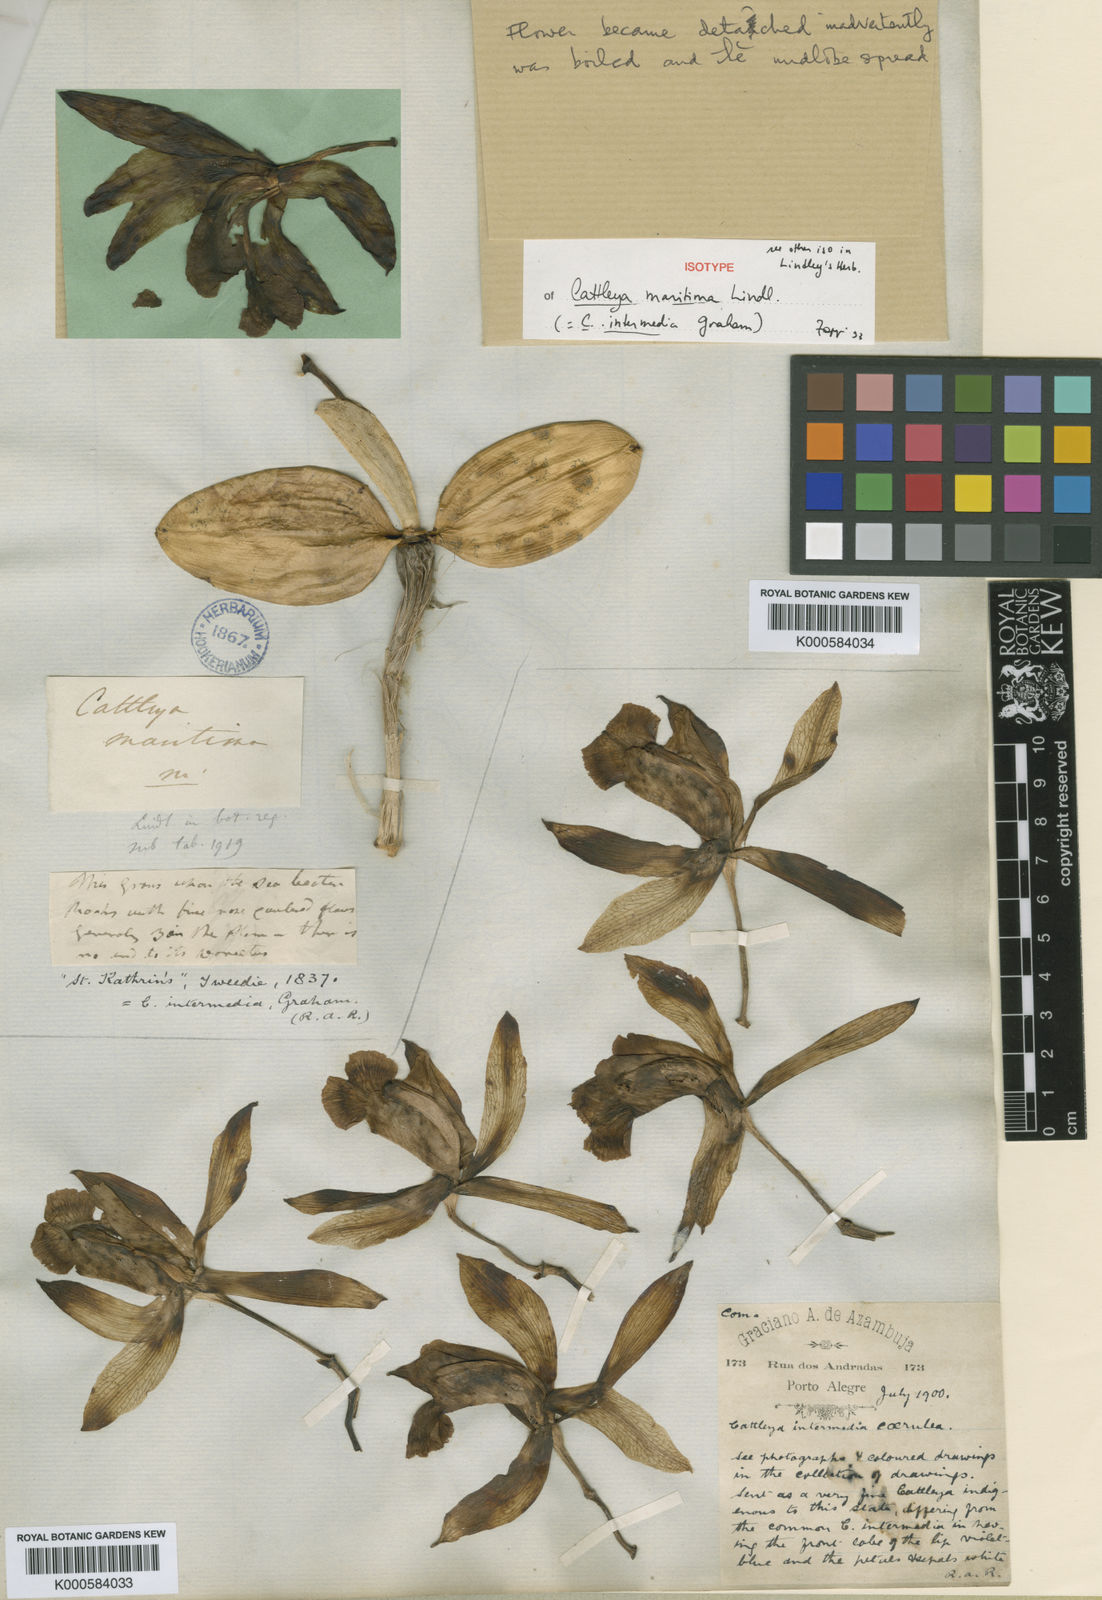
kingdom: Plantae
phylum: Tracheophyta
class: Liliopsida
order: Asparagales
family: Orchidaceae
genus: Cattleya
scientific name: Cattleya
